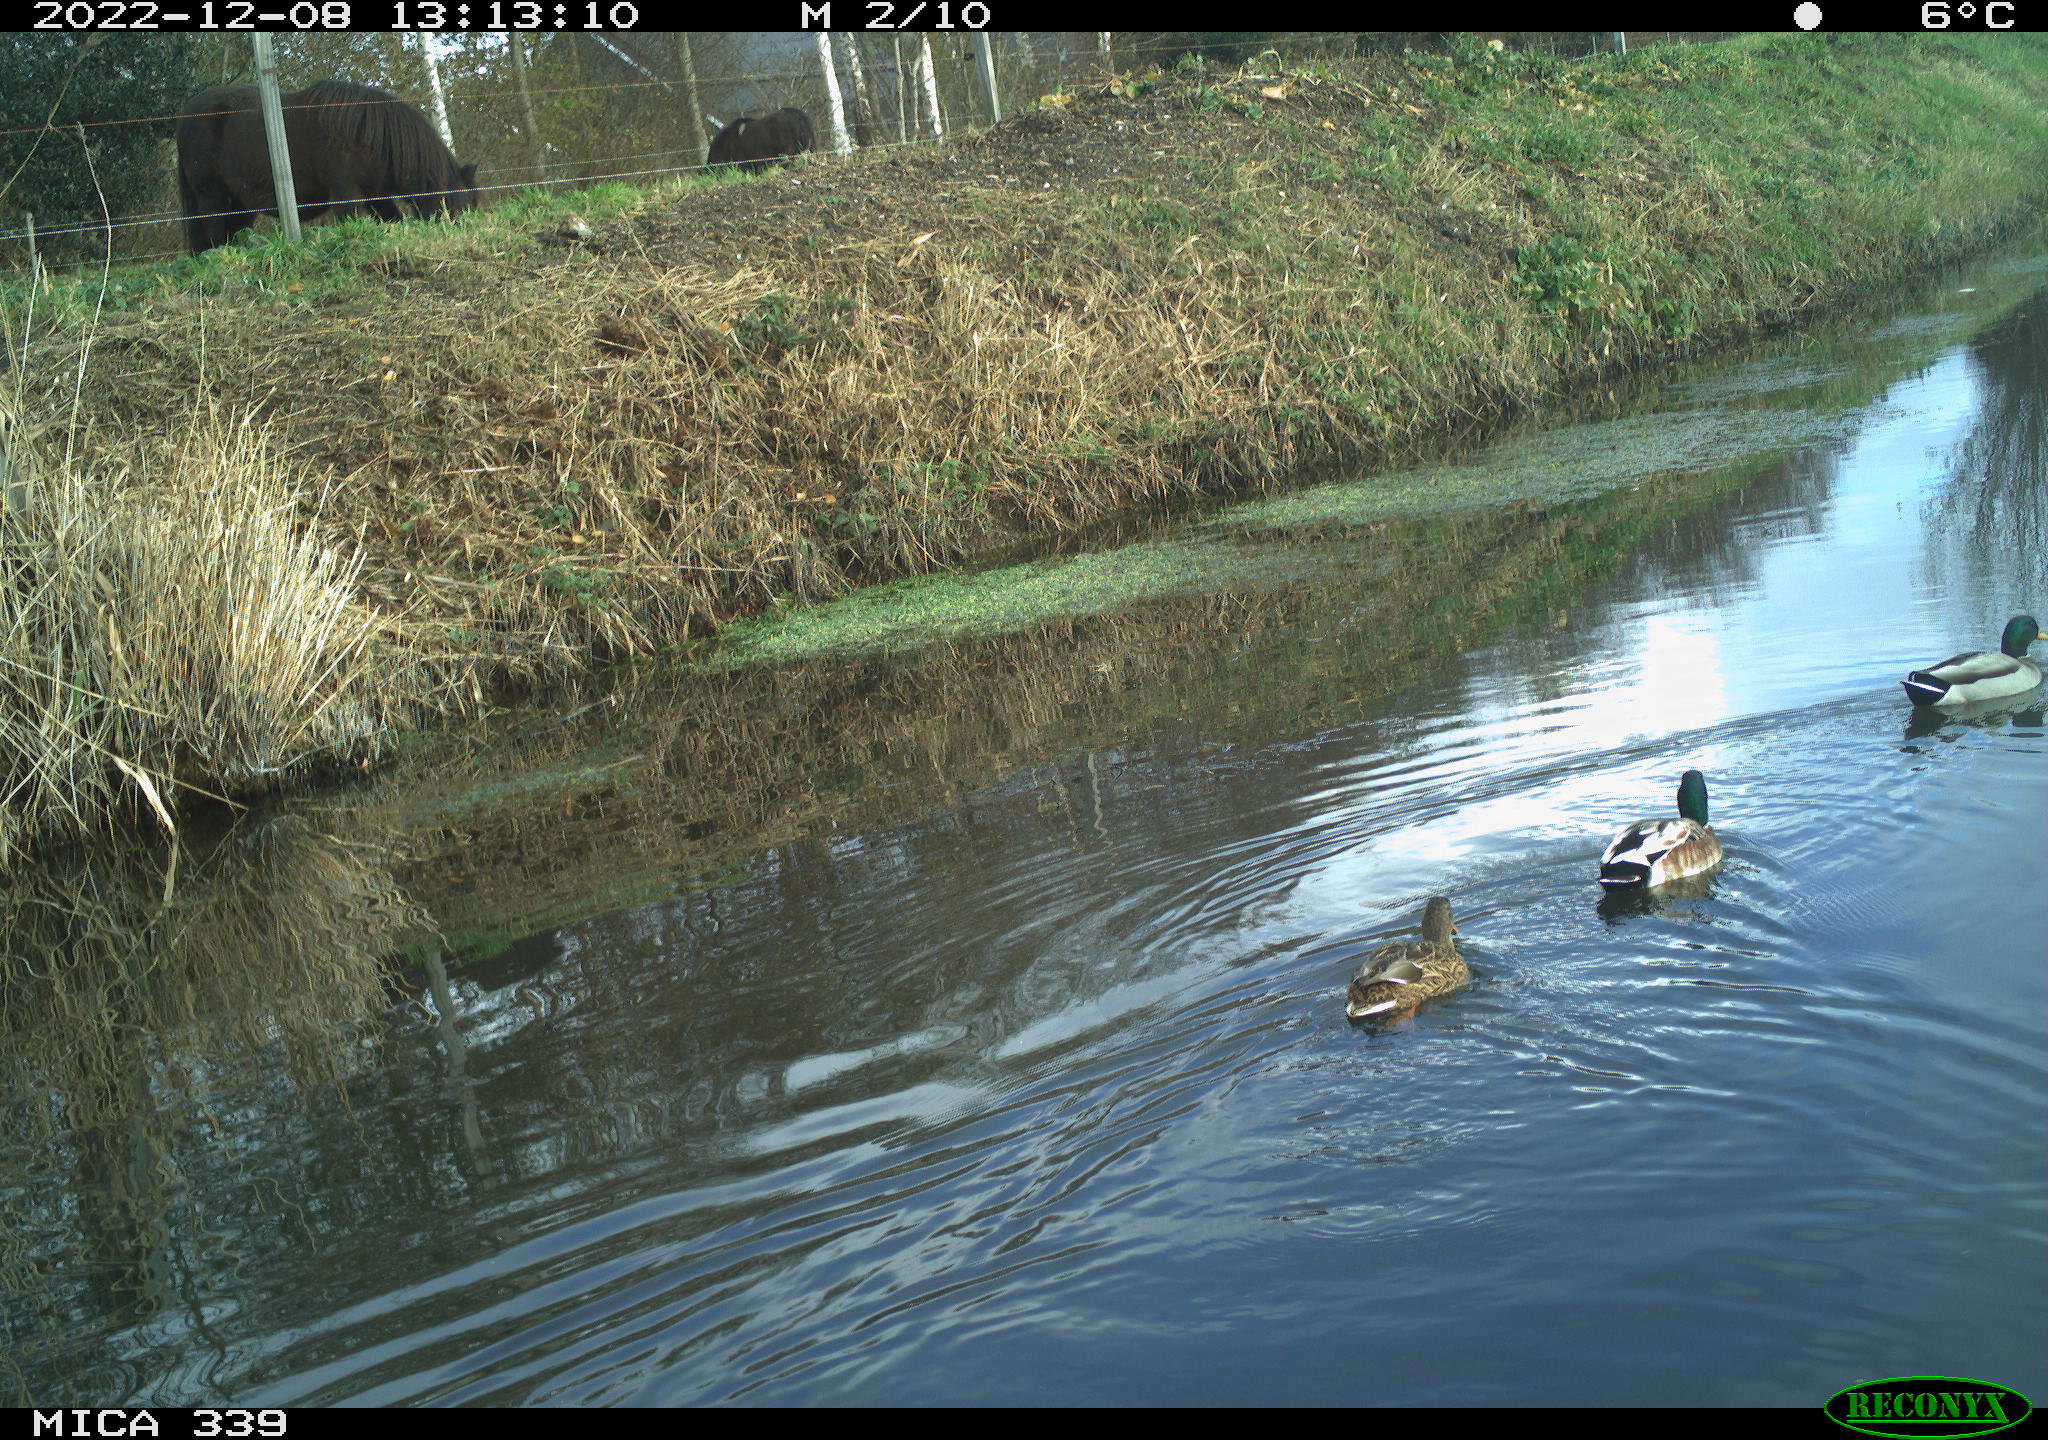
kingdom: Animalia
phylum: Chordata
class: Aves
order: Anseriformes
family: Anatidae
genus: Anas
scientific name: Anas
